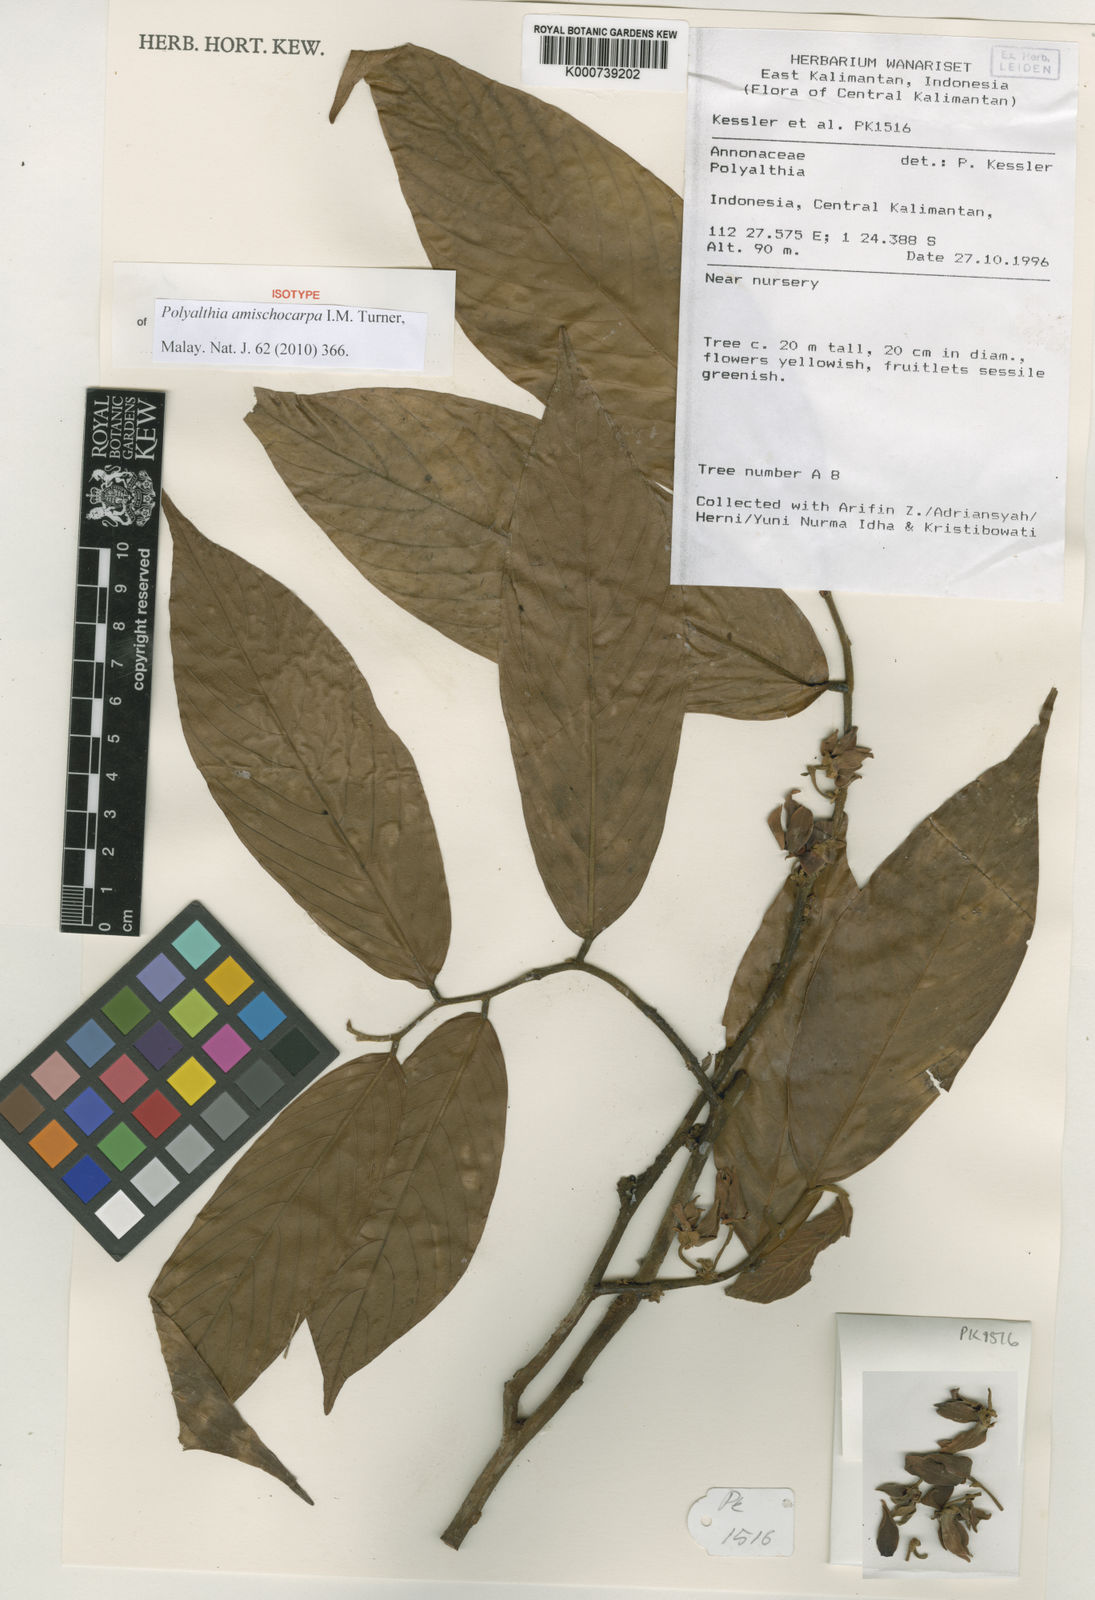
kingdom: Plantae
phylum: Tracheophyta
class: Magnoliopsida
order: Magnoliales
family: Annonaceae
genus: Polyalthia
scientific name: Polyalthia amischocarpa
